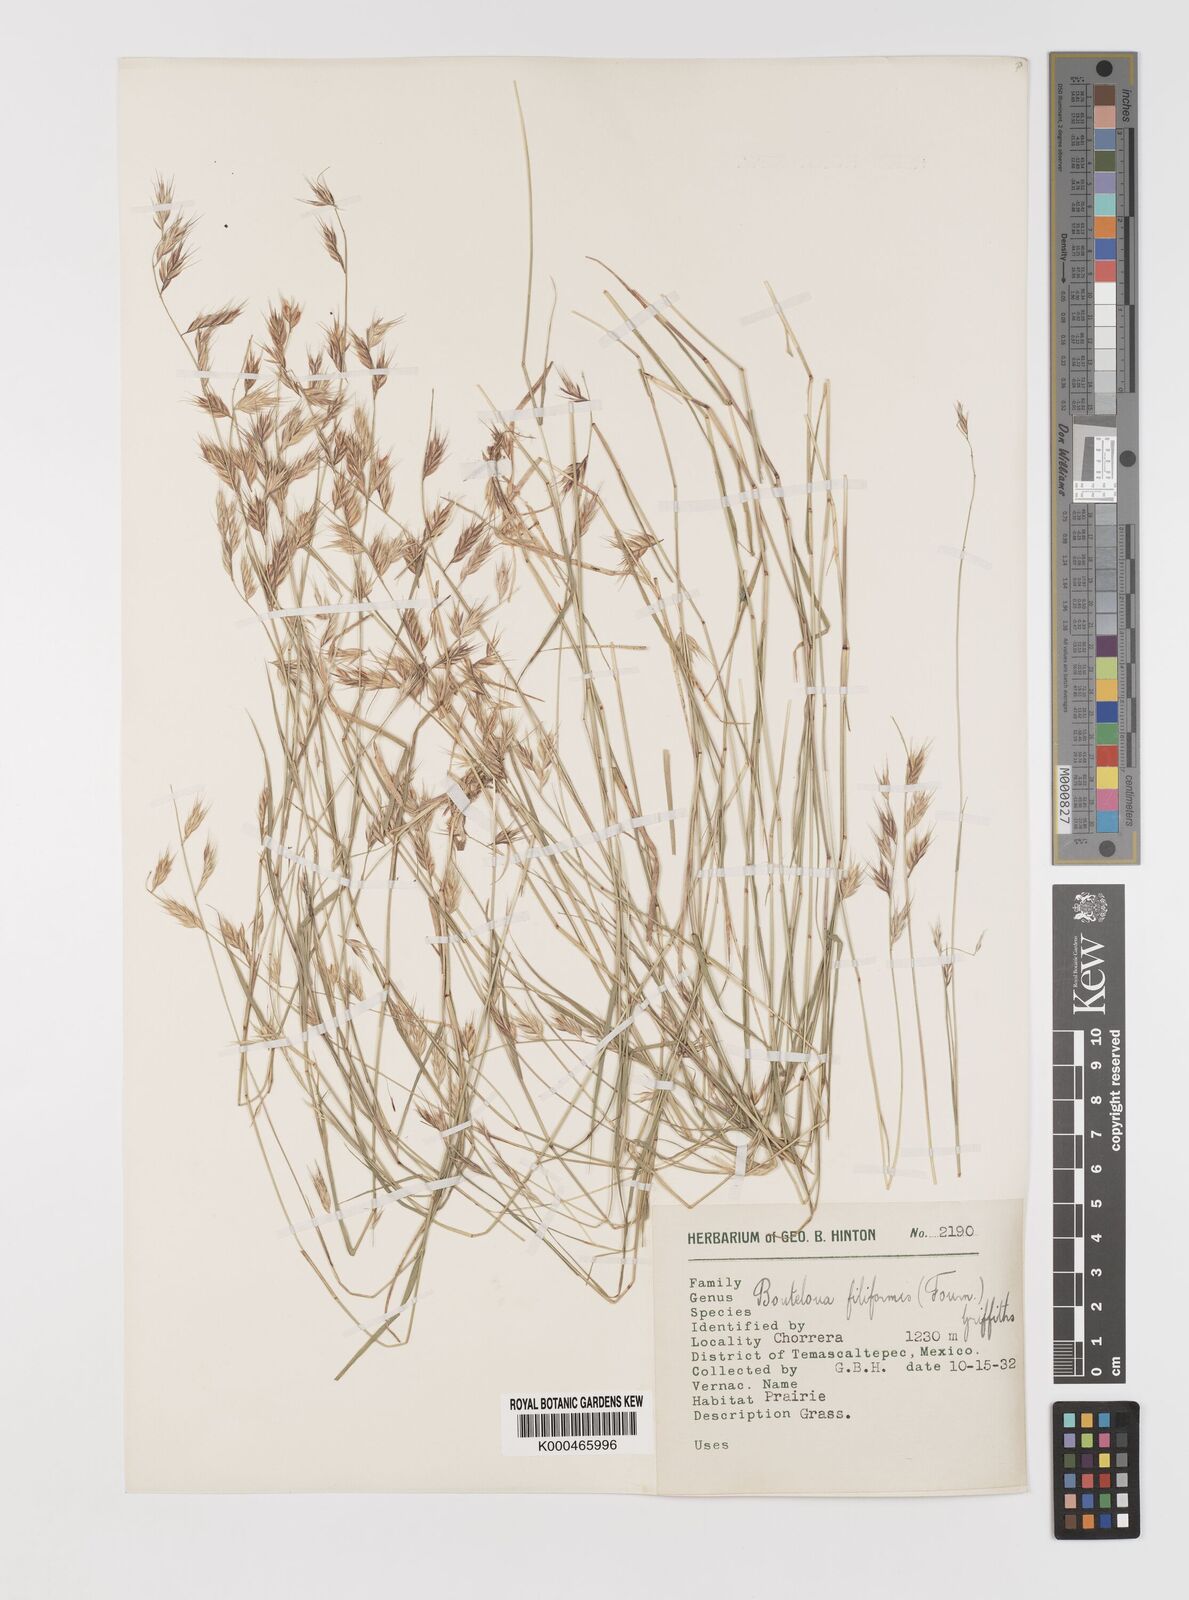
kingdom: Plantae
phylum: Tracheophyta
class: Liliopsida
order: Poales
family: Poaceae
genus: Bouteloua
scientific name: Bouteloua repens
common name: Slender grama
